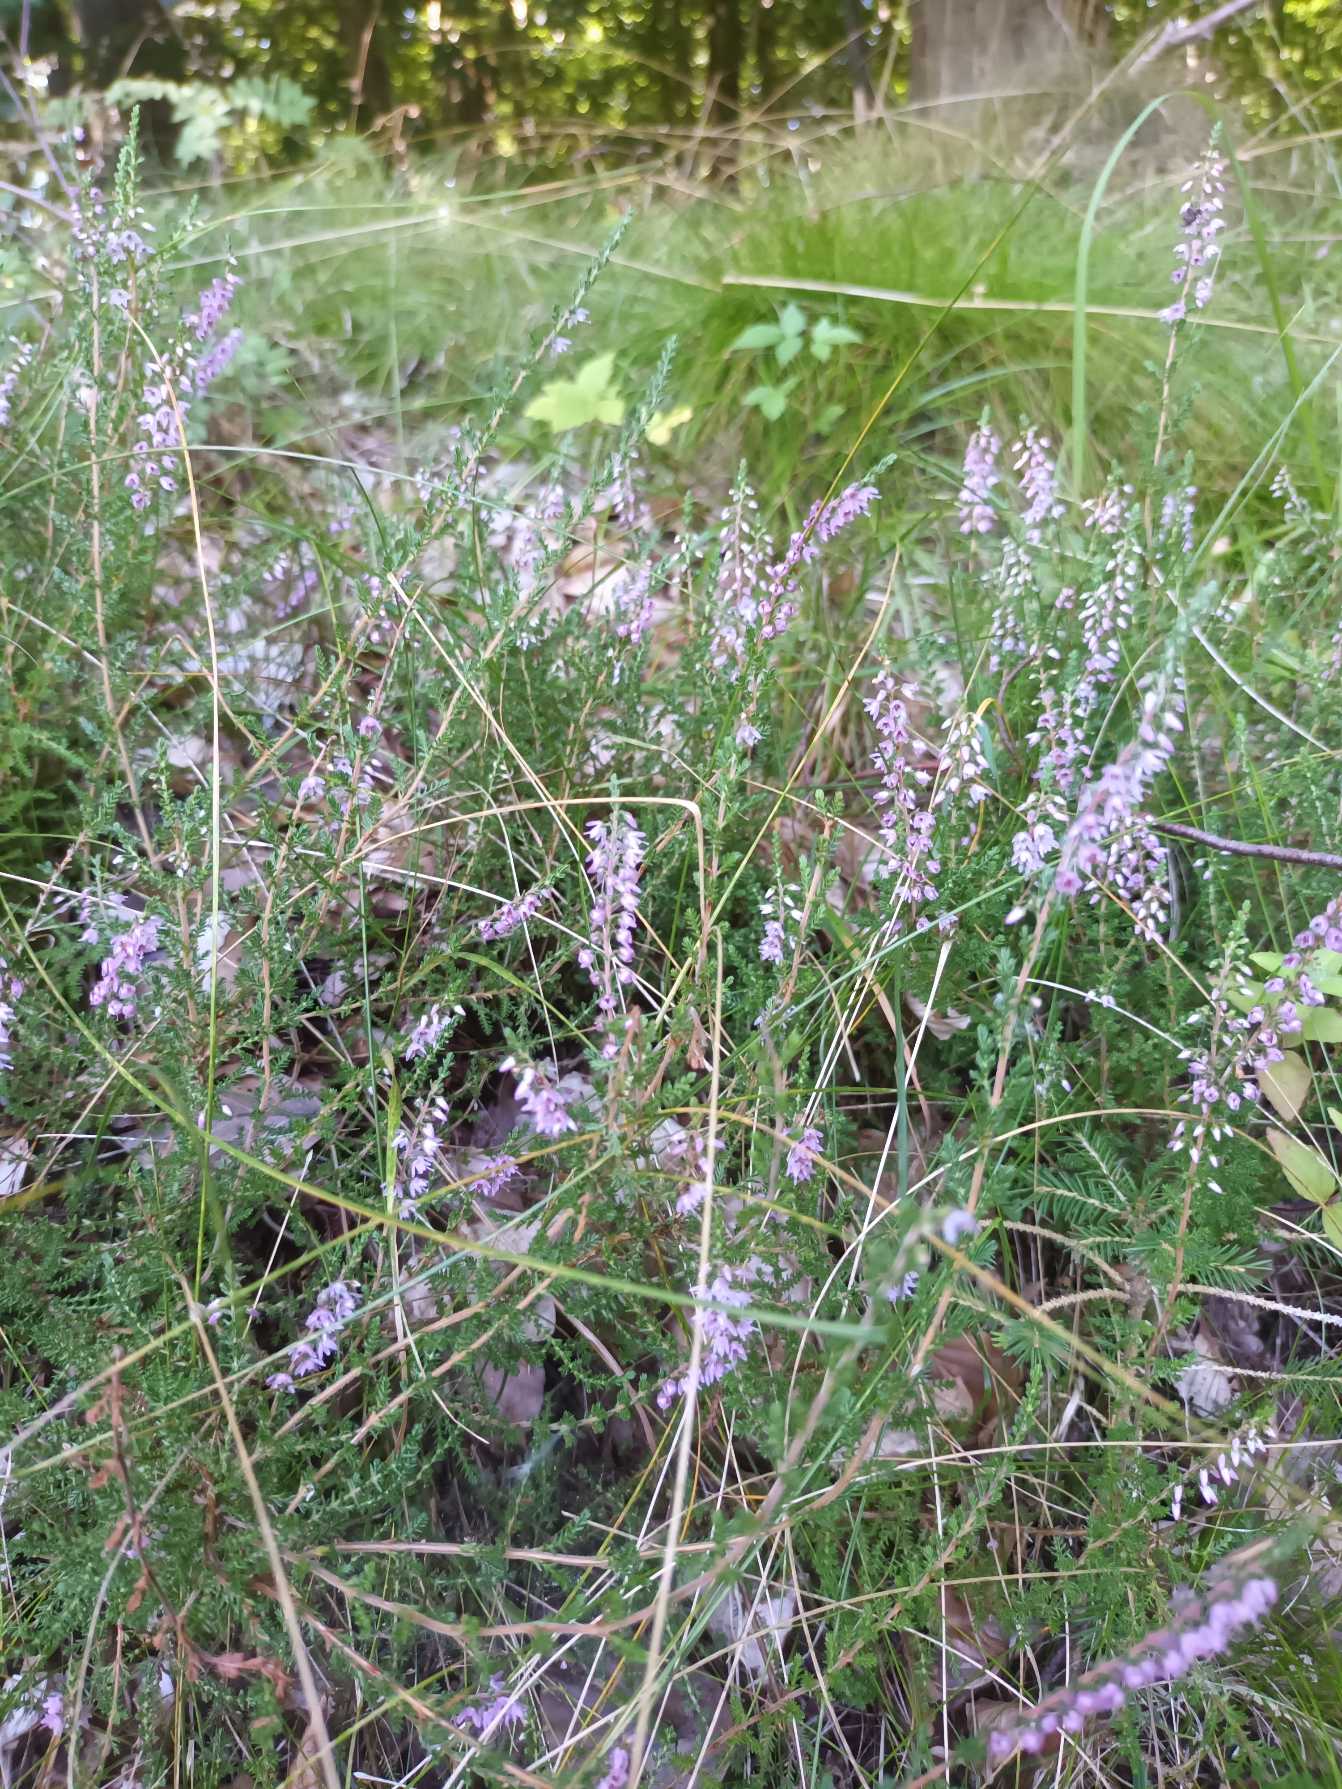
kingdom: Plantae
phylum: Tracheophyta
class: Magnoliopsida
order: Ericales
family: Ericaceae
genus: Calluna
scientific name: Calluna vulgaris
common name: Hedelyng
